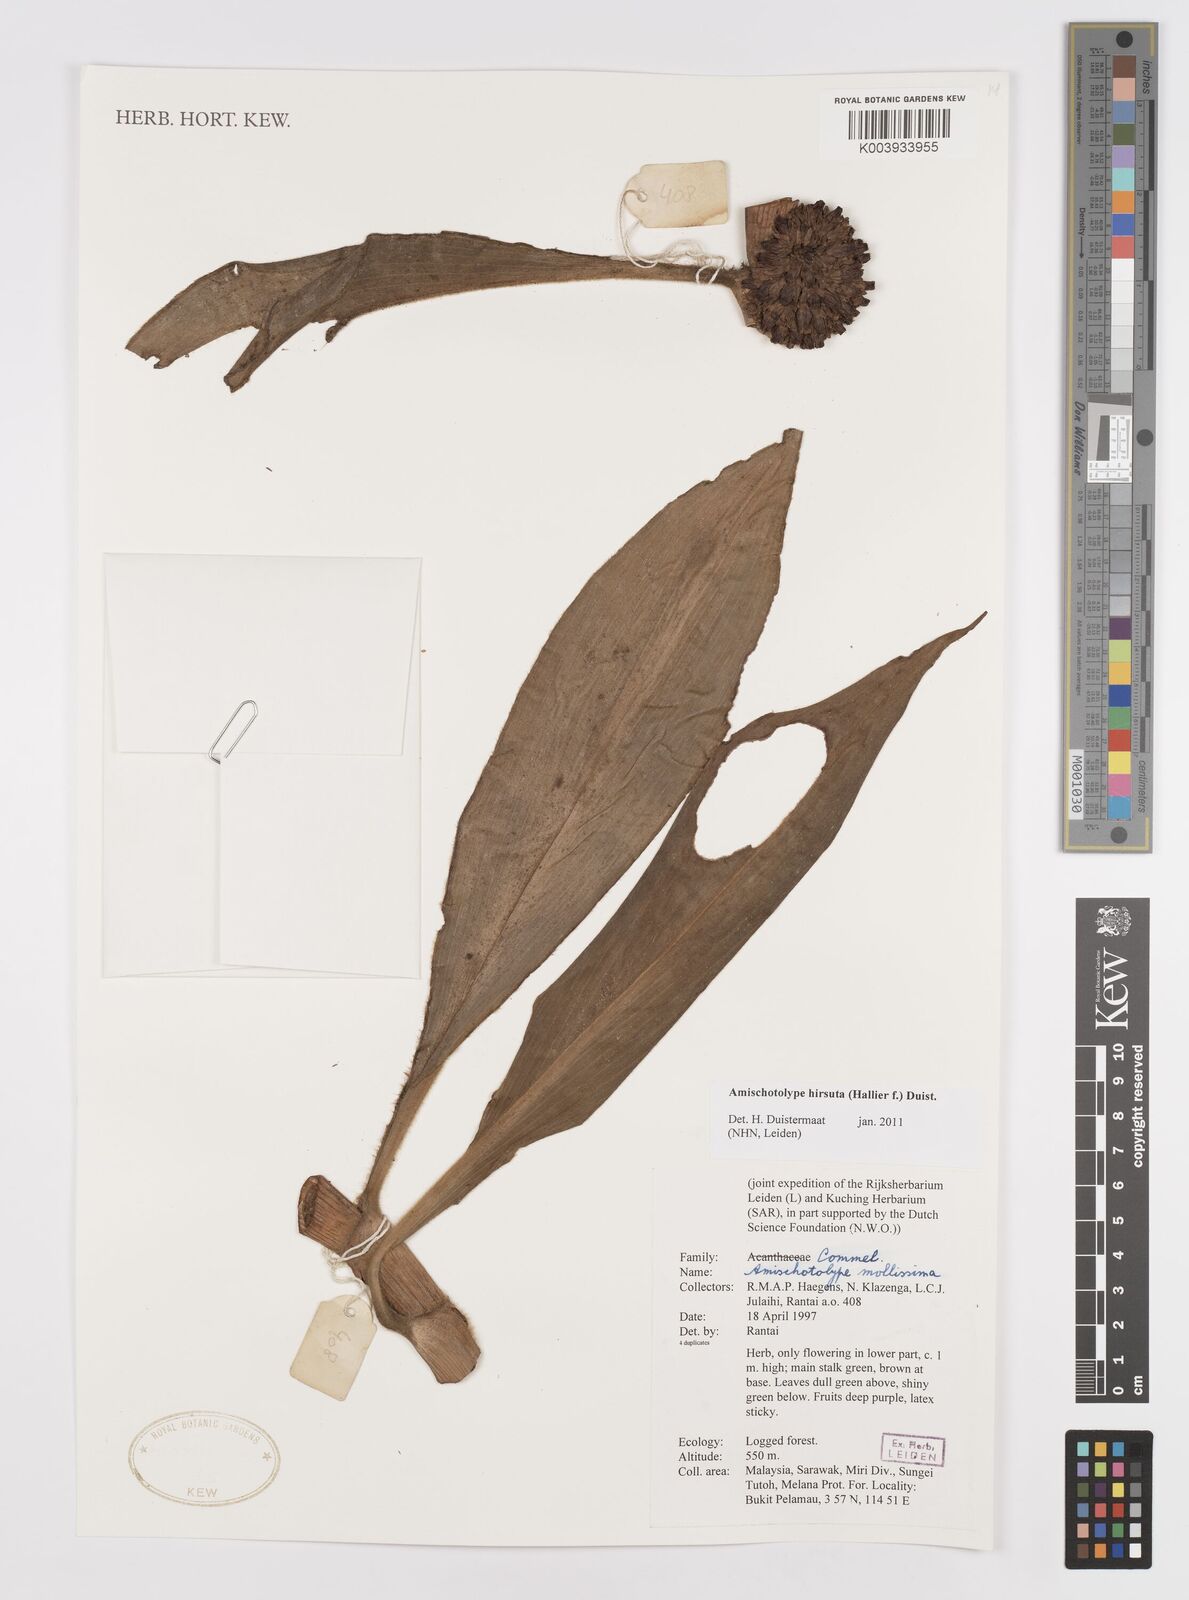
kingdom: Plantae
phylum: Tracheophyta
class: Liliopsida
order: Commelinales
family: Commelinaceae
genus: Amischotolype
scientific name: Amischotolype hirsuta
